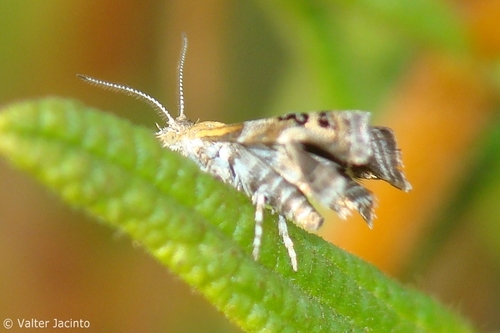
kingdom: Animalia
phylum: Arthropoda
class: Insecta
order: Lepidoptera
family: Choreutidae
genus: Tebenna
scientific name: Tebenna micalis
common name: Vagrant twitcher
